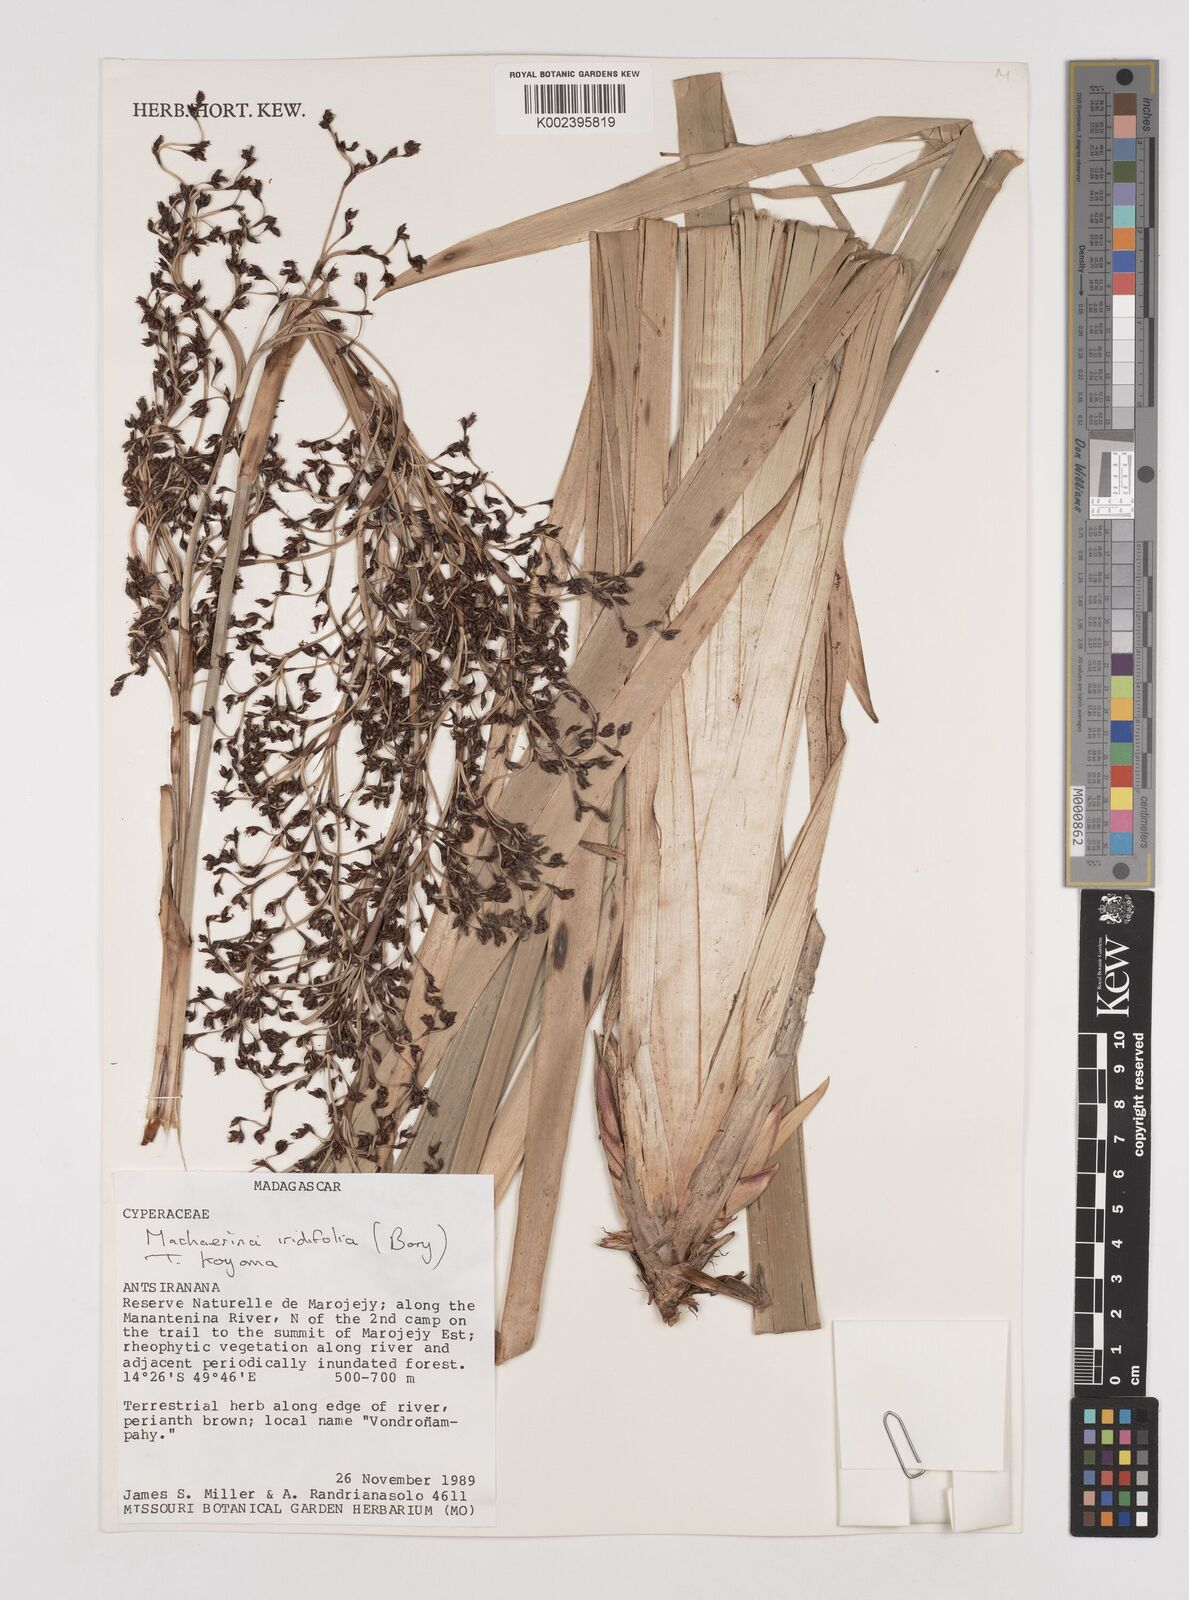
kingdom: Plantae
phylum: Tracheophyta
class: Liliopsida
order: Poales
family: Cyperaceae
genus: Machaerina
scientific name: Machaerina iridifolia
